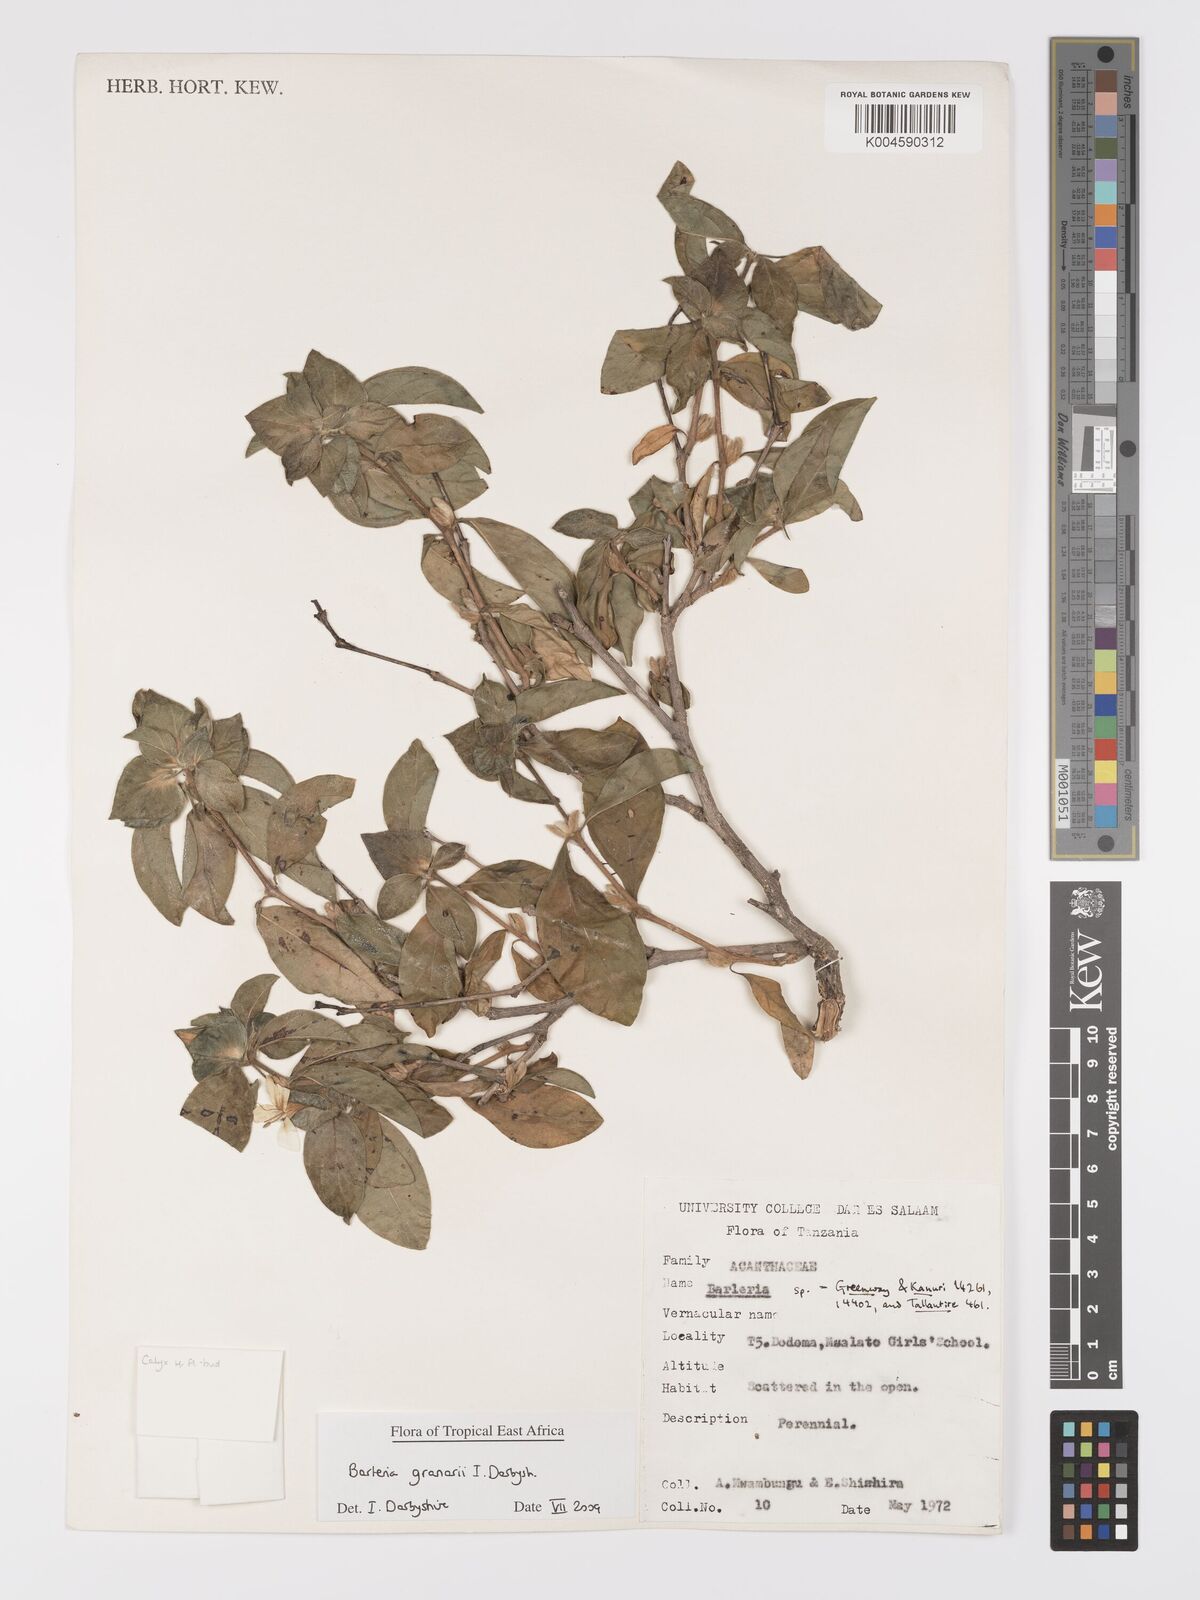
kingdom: Plantae
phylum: Tracheophyta
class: Magnoliopsida
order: Lamiales
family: Acanthaceae
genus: Barleria
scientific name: Barleria granarii
